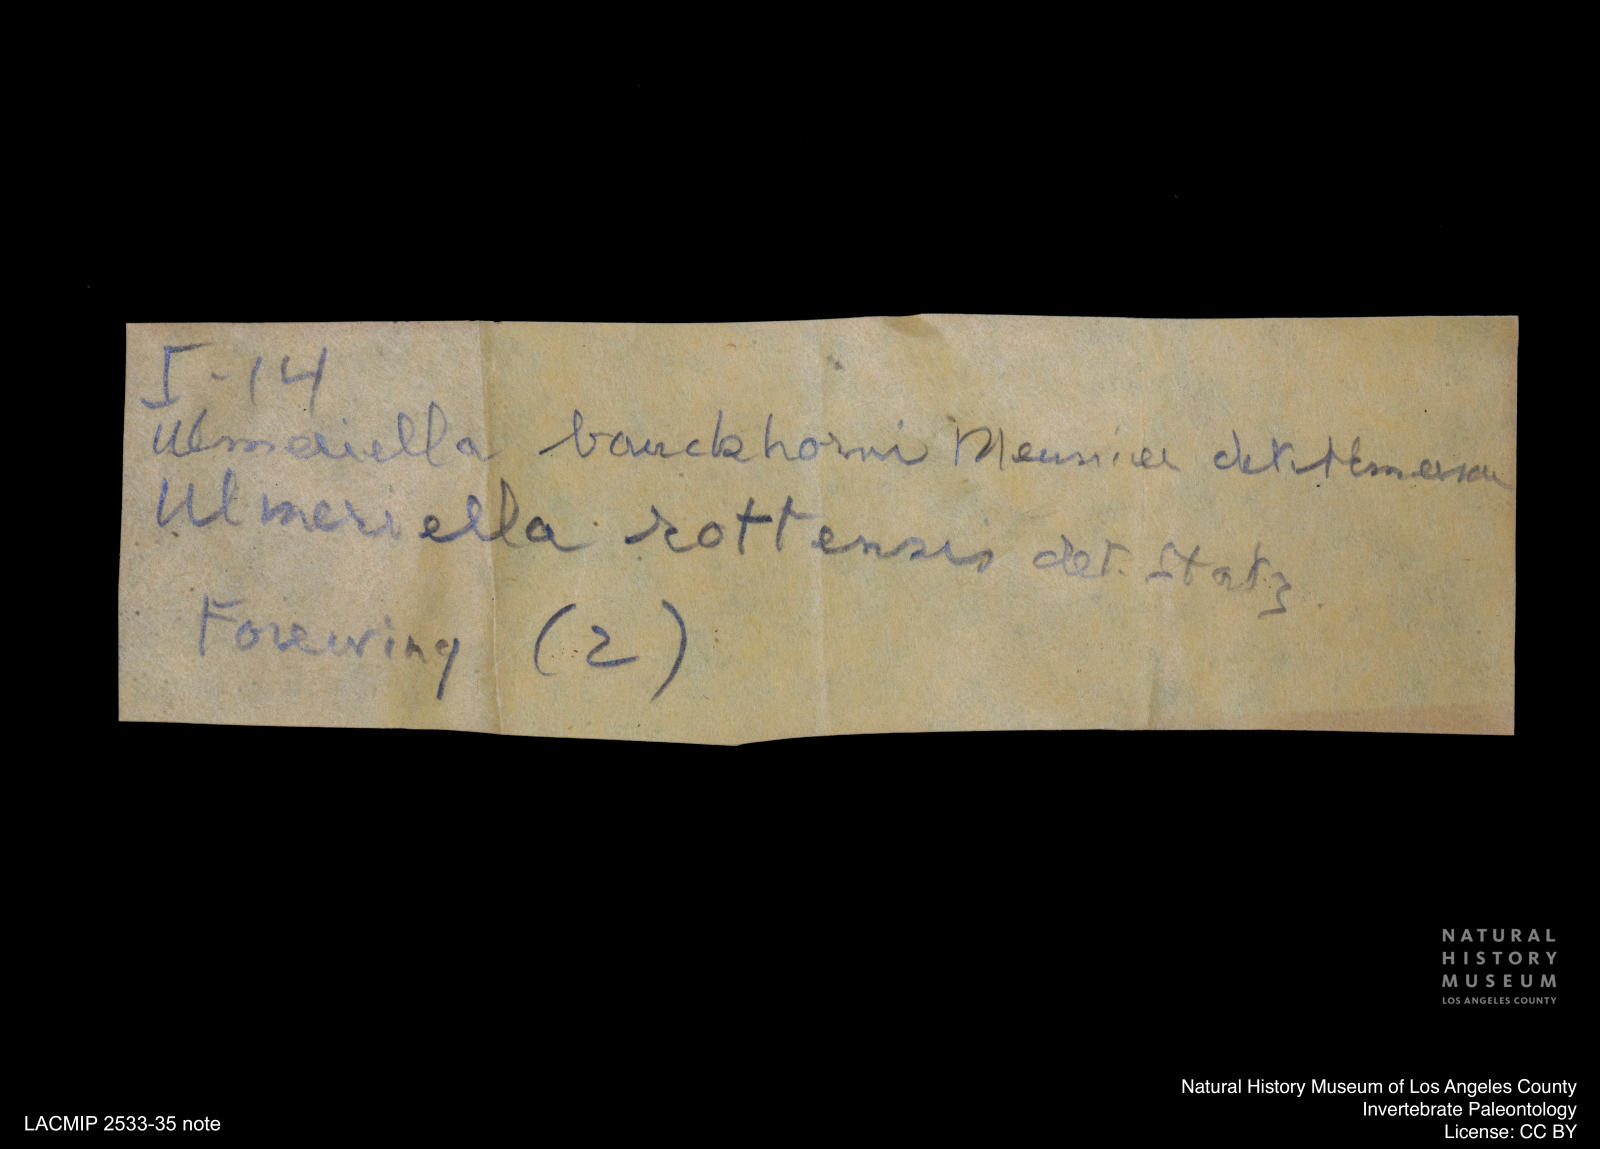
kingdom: Animalia
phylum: Arthropoda
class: Insecta
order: Blattodea
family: Hodotermitidae
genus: Ulmeriella
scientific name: Ulmeriella bauckhorni
